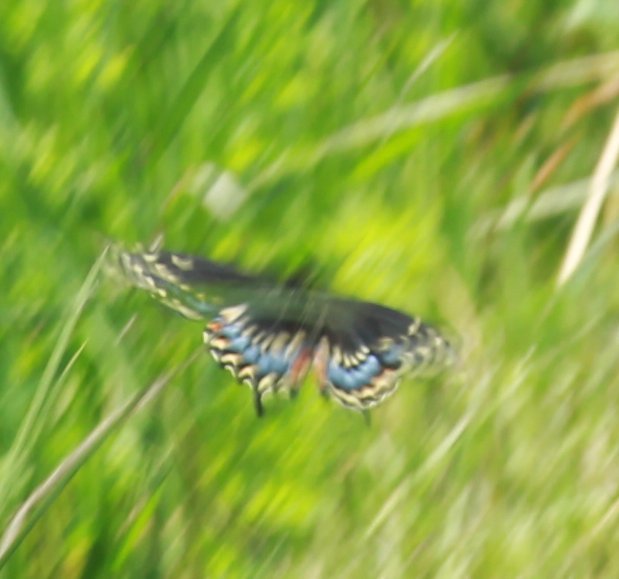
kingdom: Animalia
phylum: Arthropoda
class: Insecta
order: Lepidoptera
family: Papilionidae
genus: Papilio
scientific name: Papilio polyxenes
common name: Black Swallowtail
